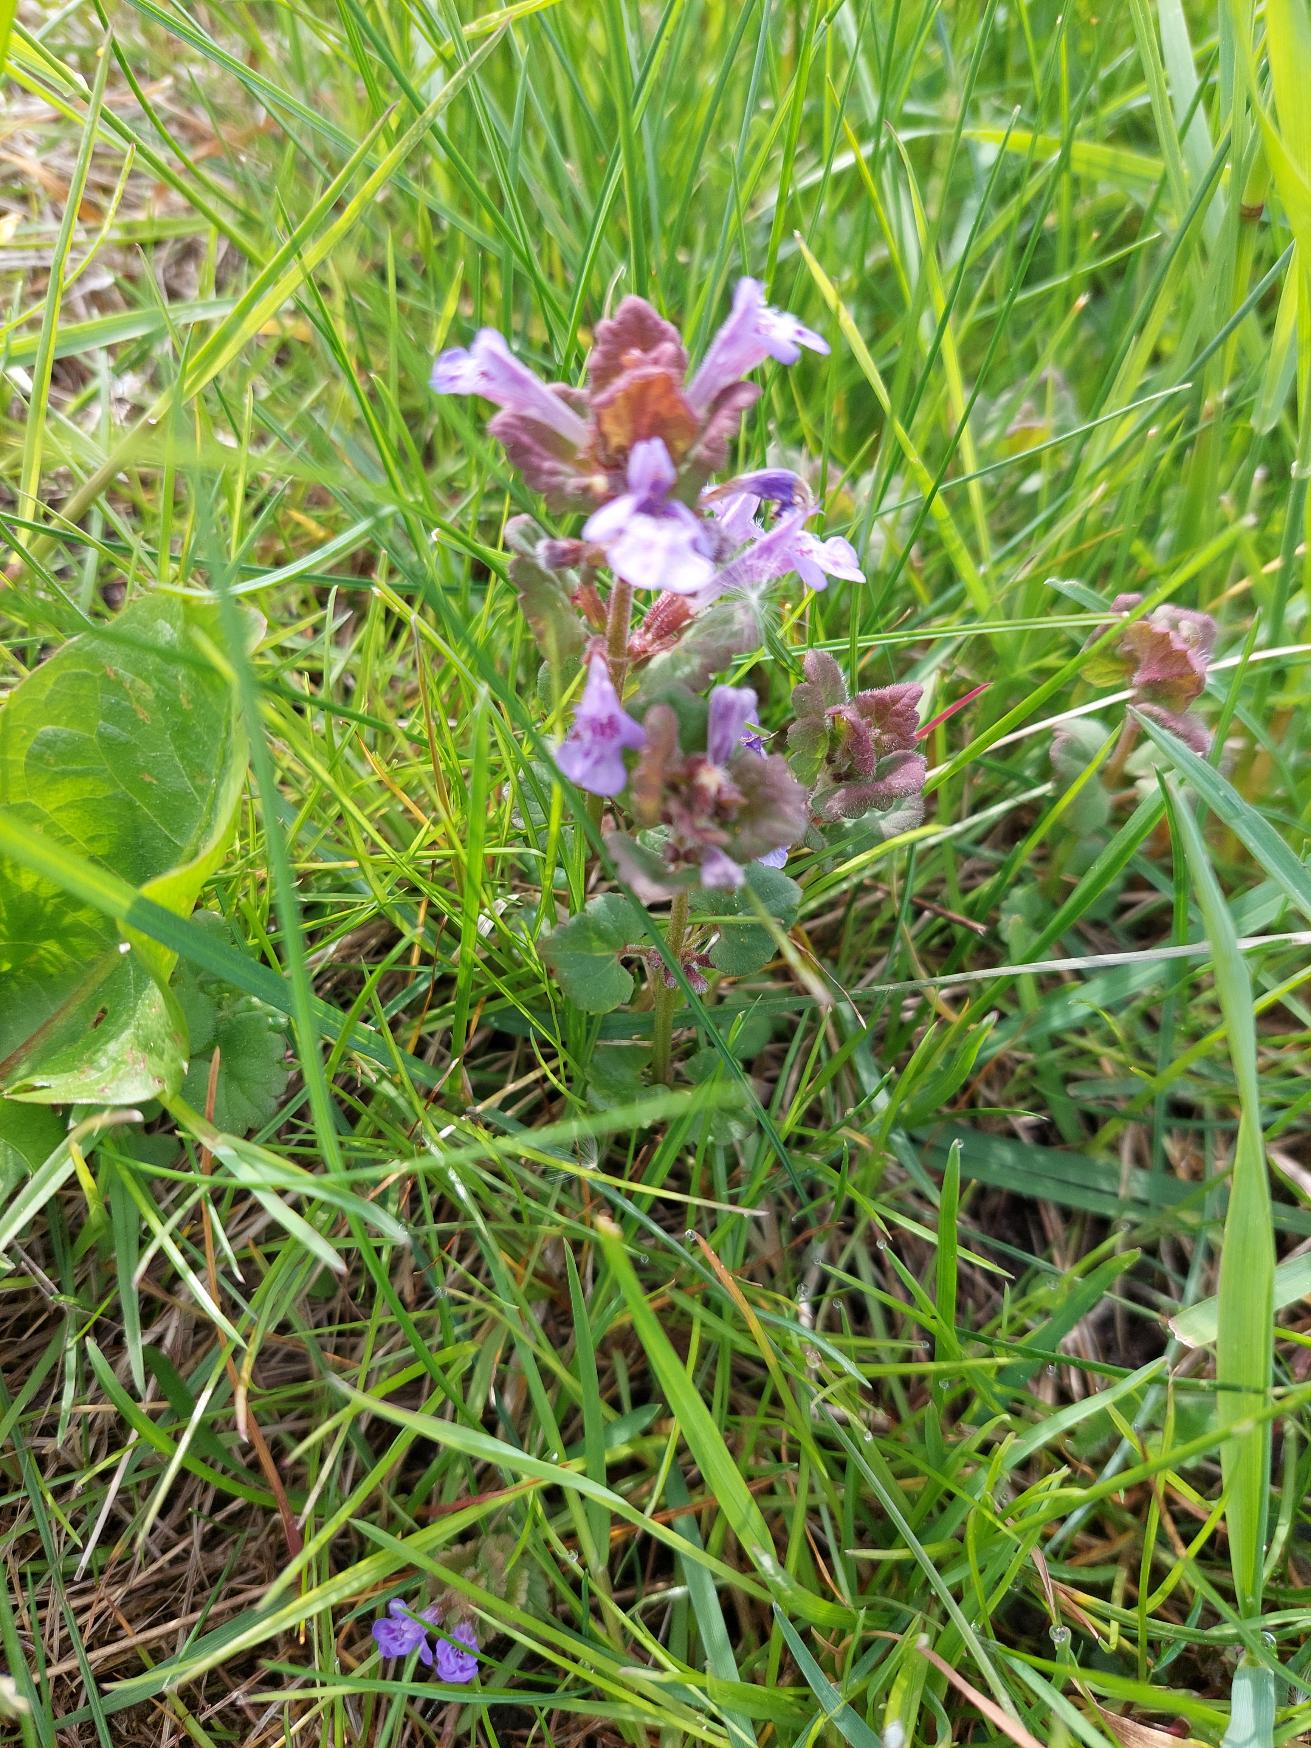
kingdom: Plantae
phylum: Tracheophyta
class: Magnoliopsida
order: Lamiales
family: Lamiaceae
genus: Glechoma
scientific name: Glechoma hederacea
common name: Korsknap
